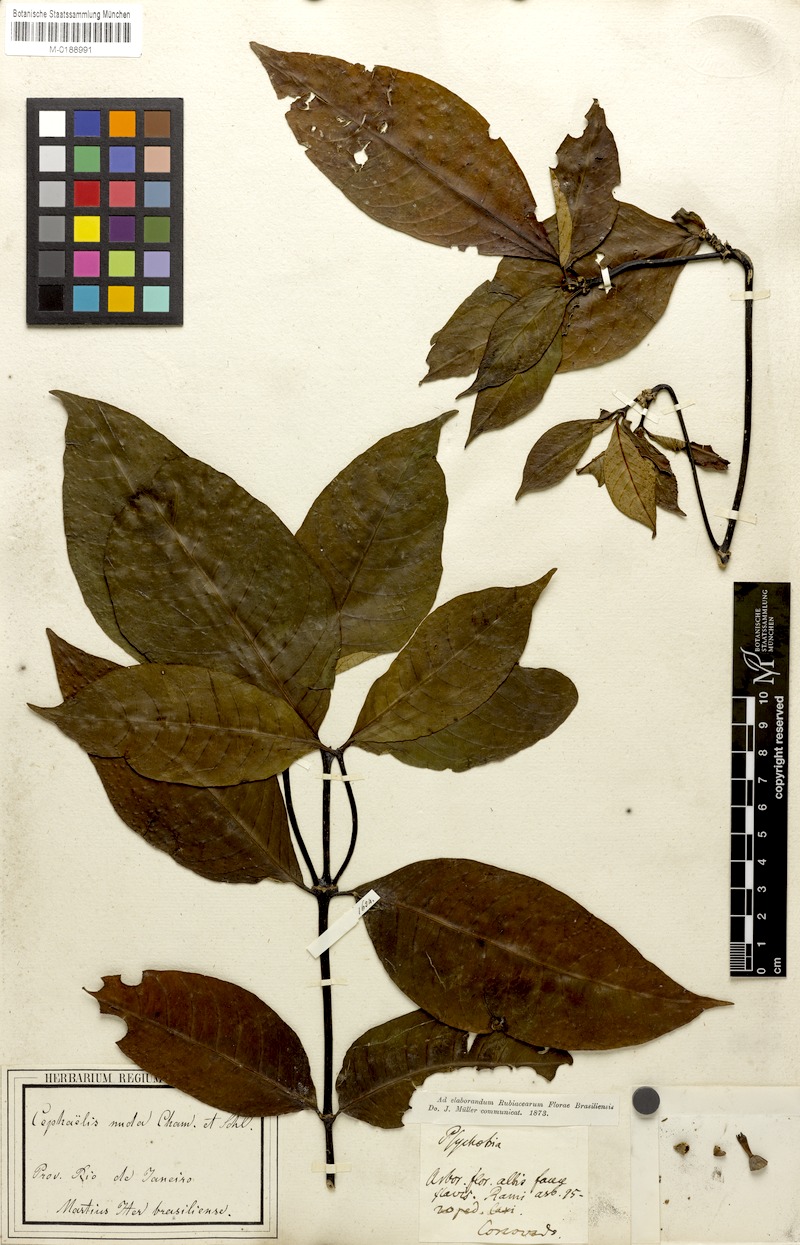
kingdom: Plantae
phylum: Tracheophyta
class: Magnoliopsida
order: Gentianales
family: Rubiaceae
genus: Psychotria
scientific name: Psychotria megalocalyx
